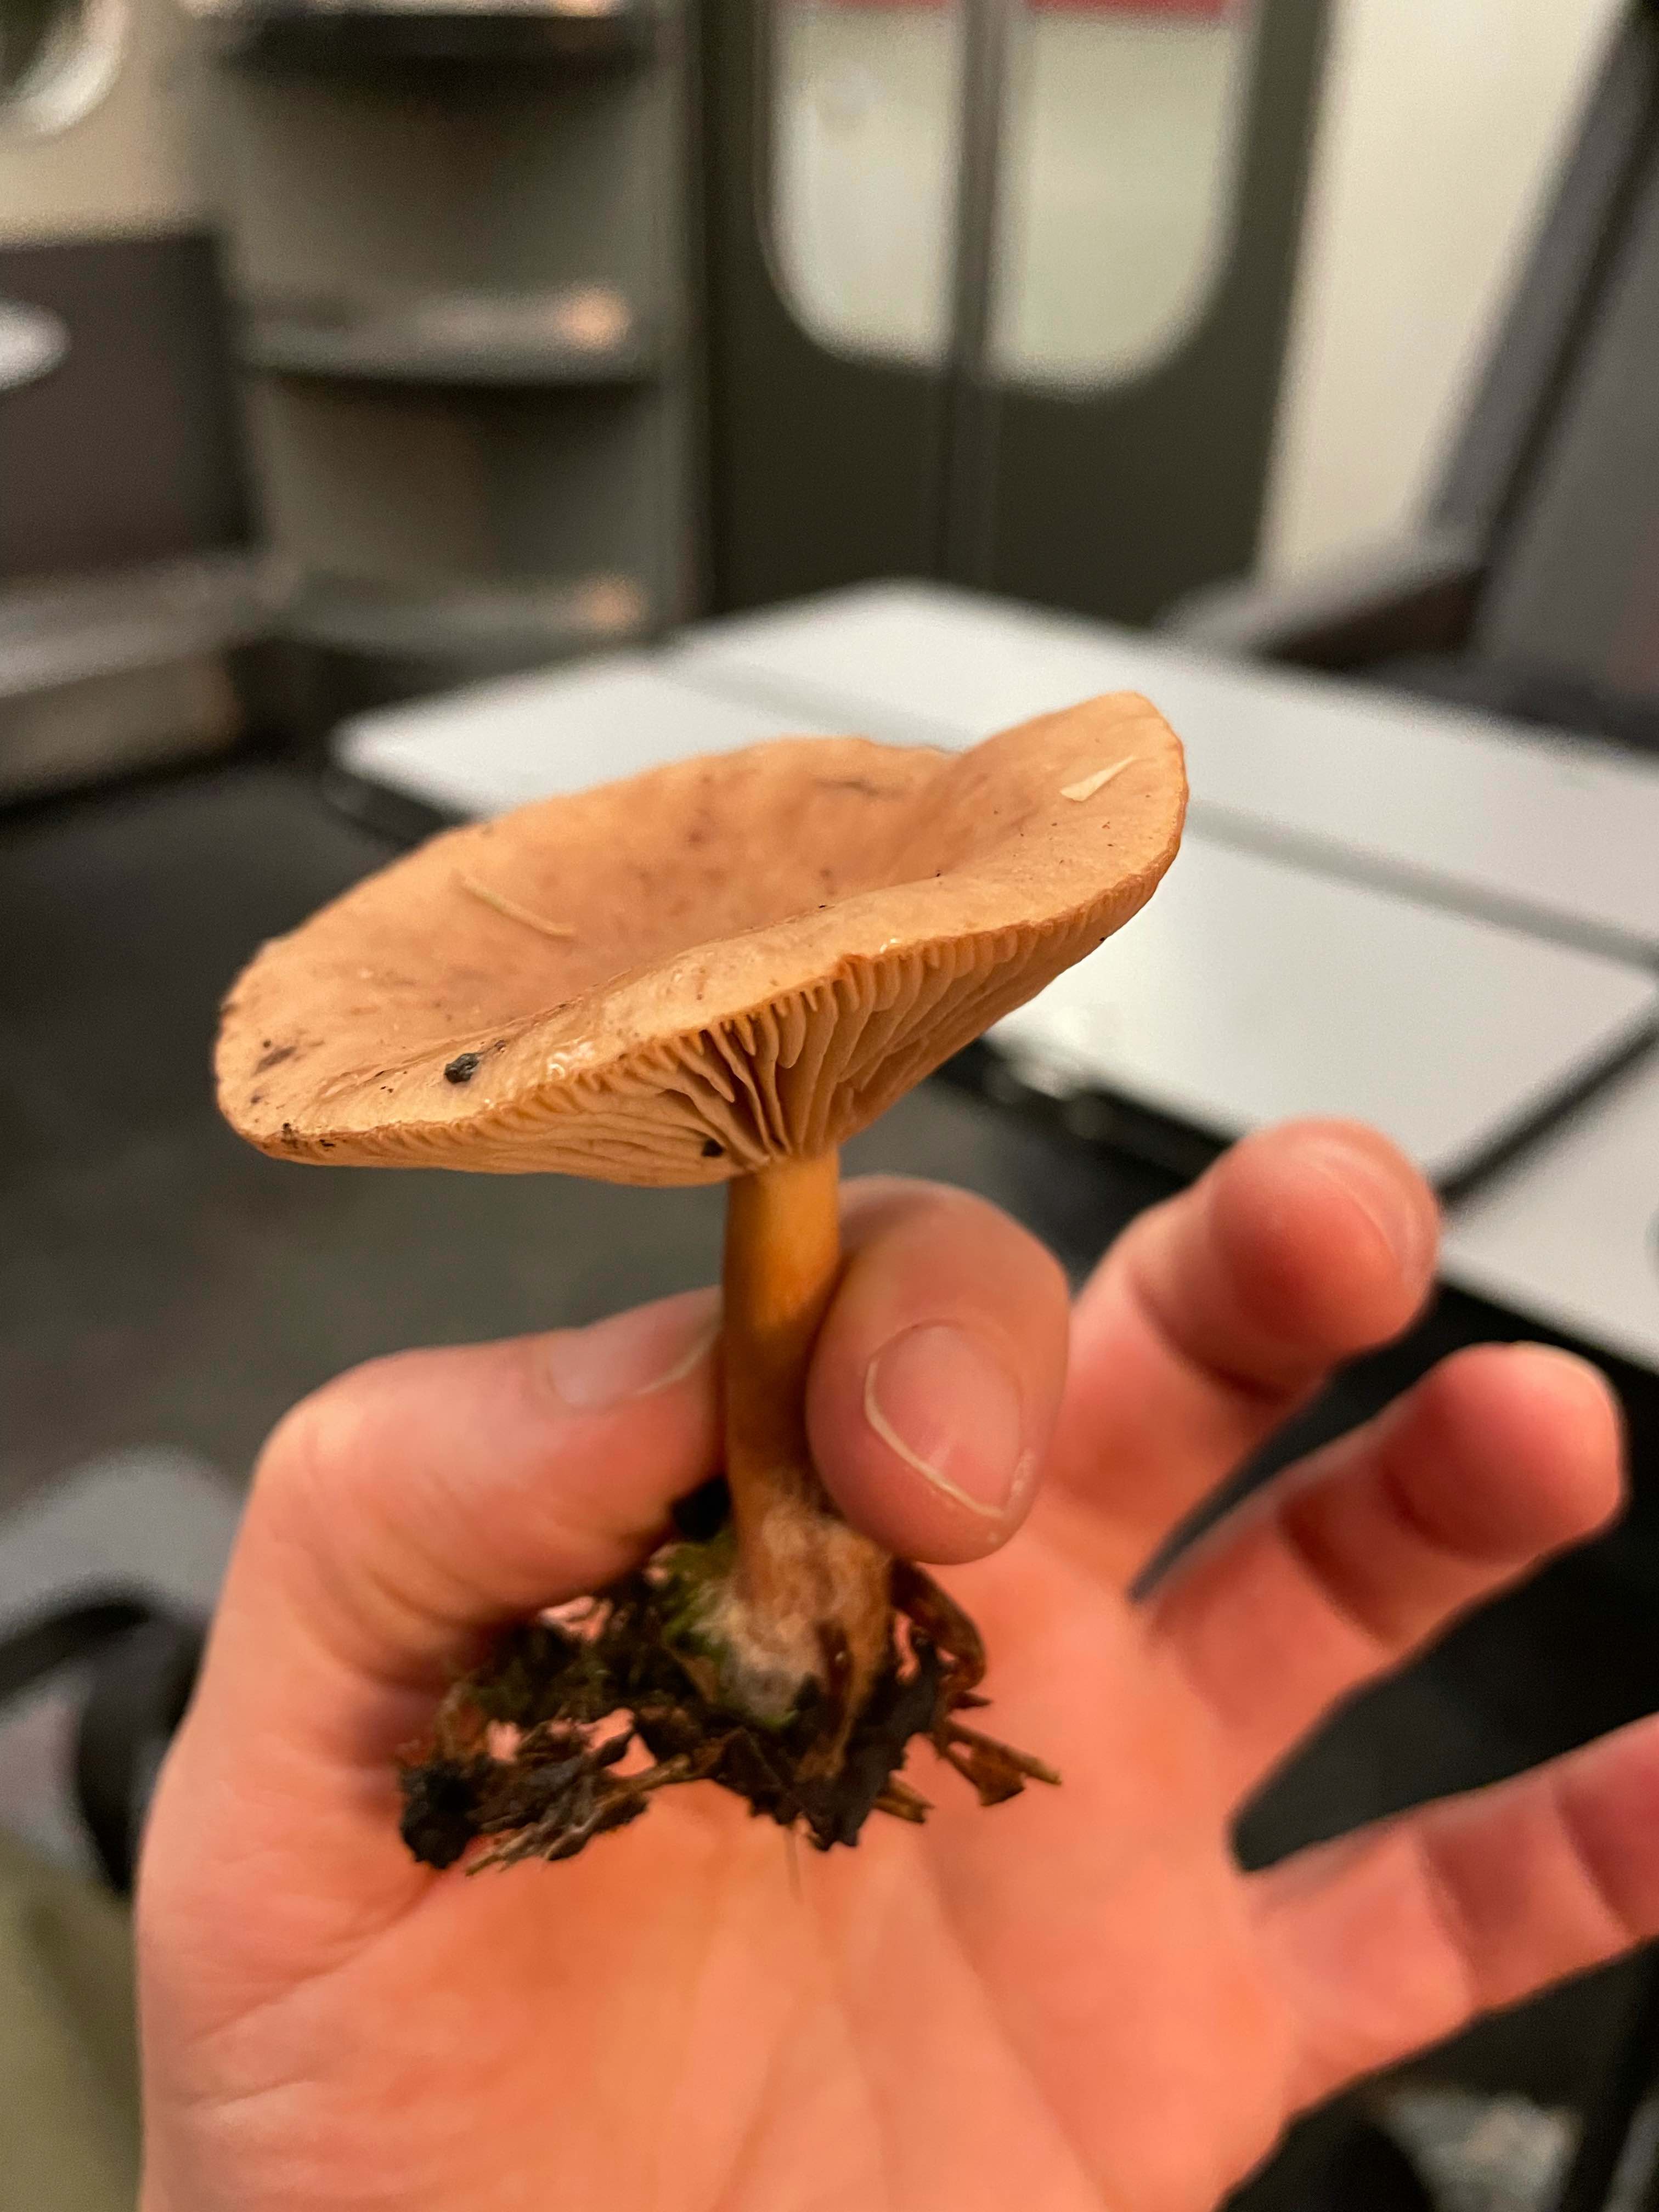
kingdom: Fungi
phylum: Basidiomycota
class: Agaricomycetes
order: Russulales
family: Russulaceae
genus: Lactarius
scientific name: Lactarius
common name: mælkehat
